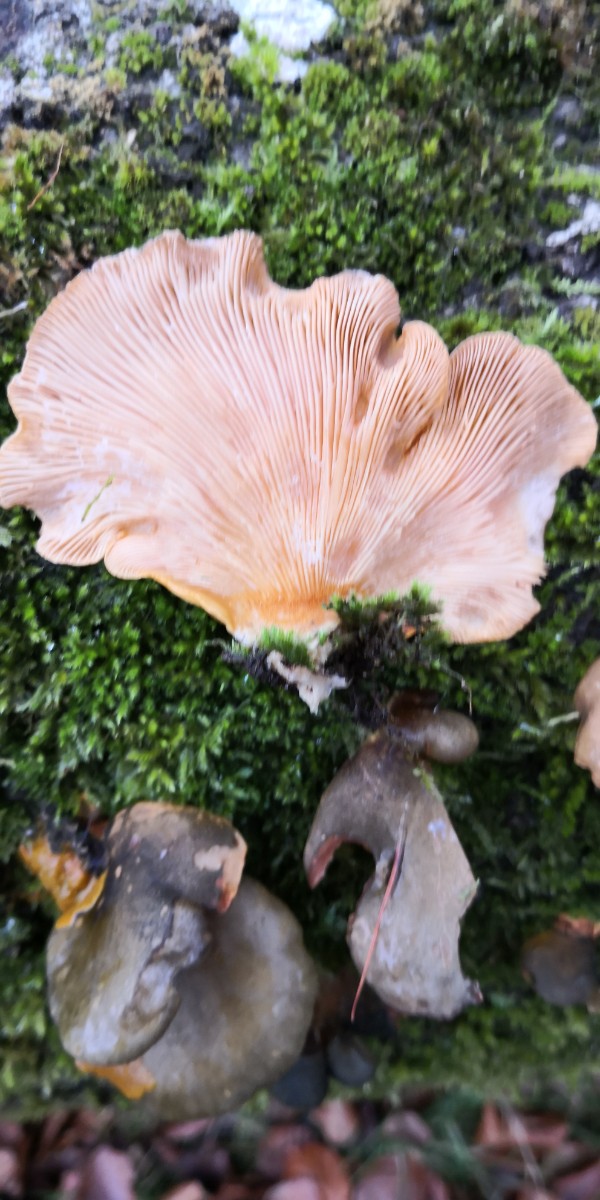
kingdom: Fungi
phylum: Basidiomycota
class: Agaricomycetes
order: Agaricales
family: Sarcomyxaceae
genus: Sarcomyxa
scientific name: Sarcomyxa serotina
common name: gummihat
